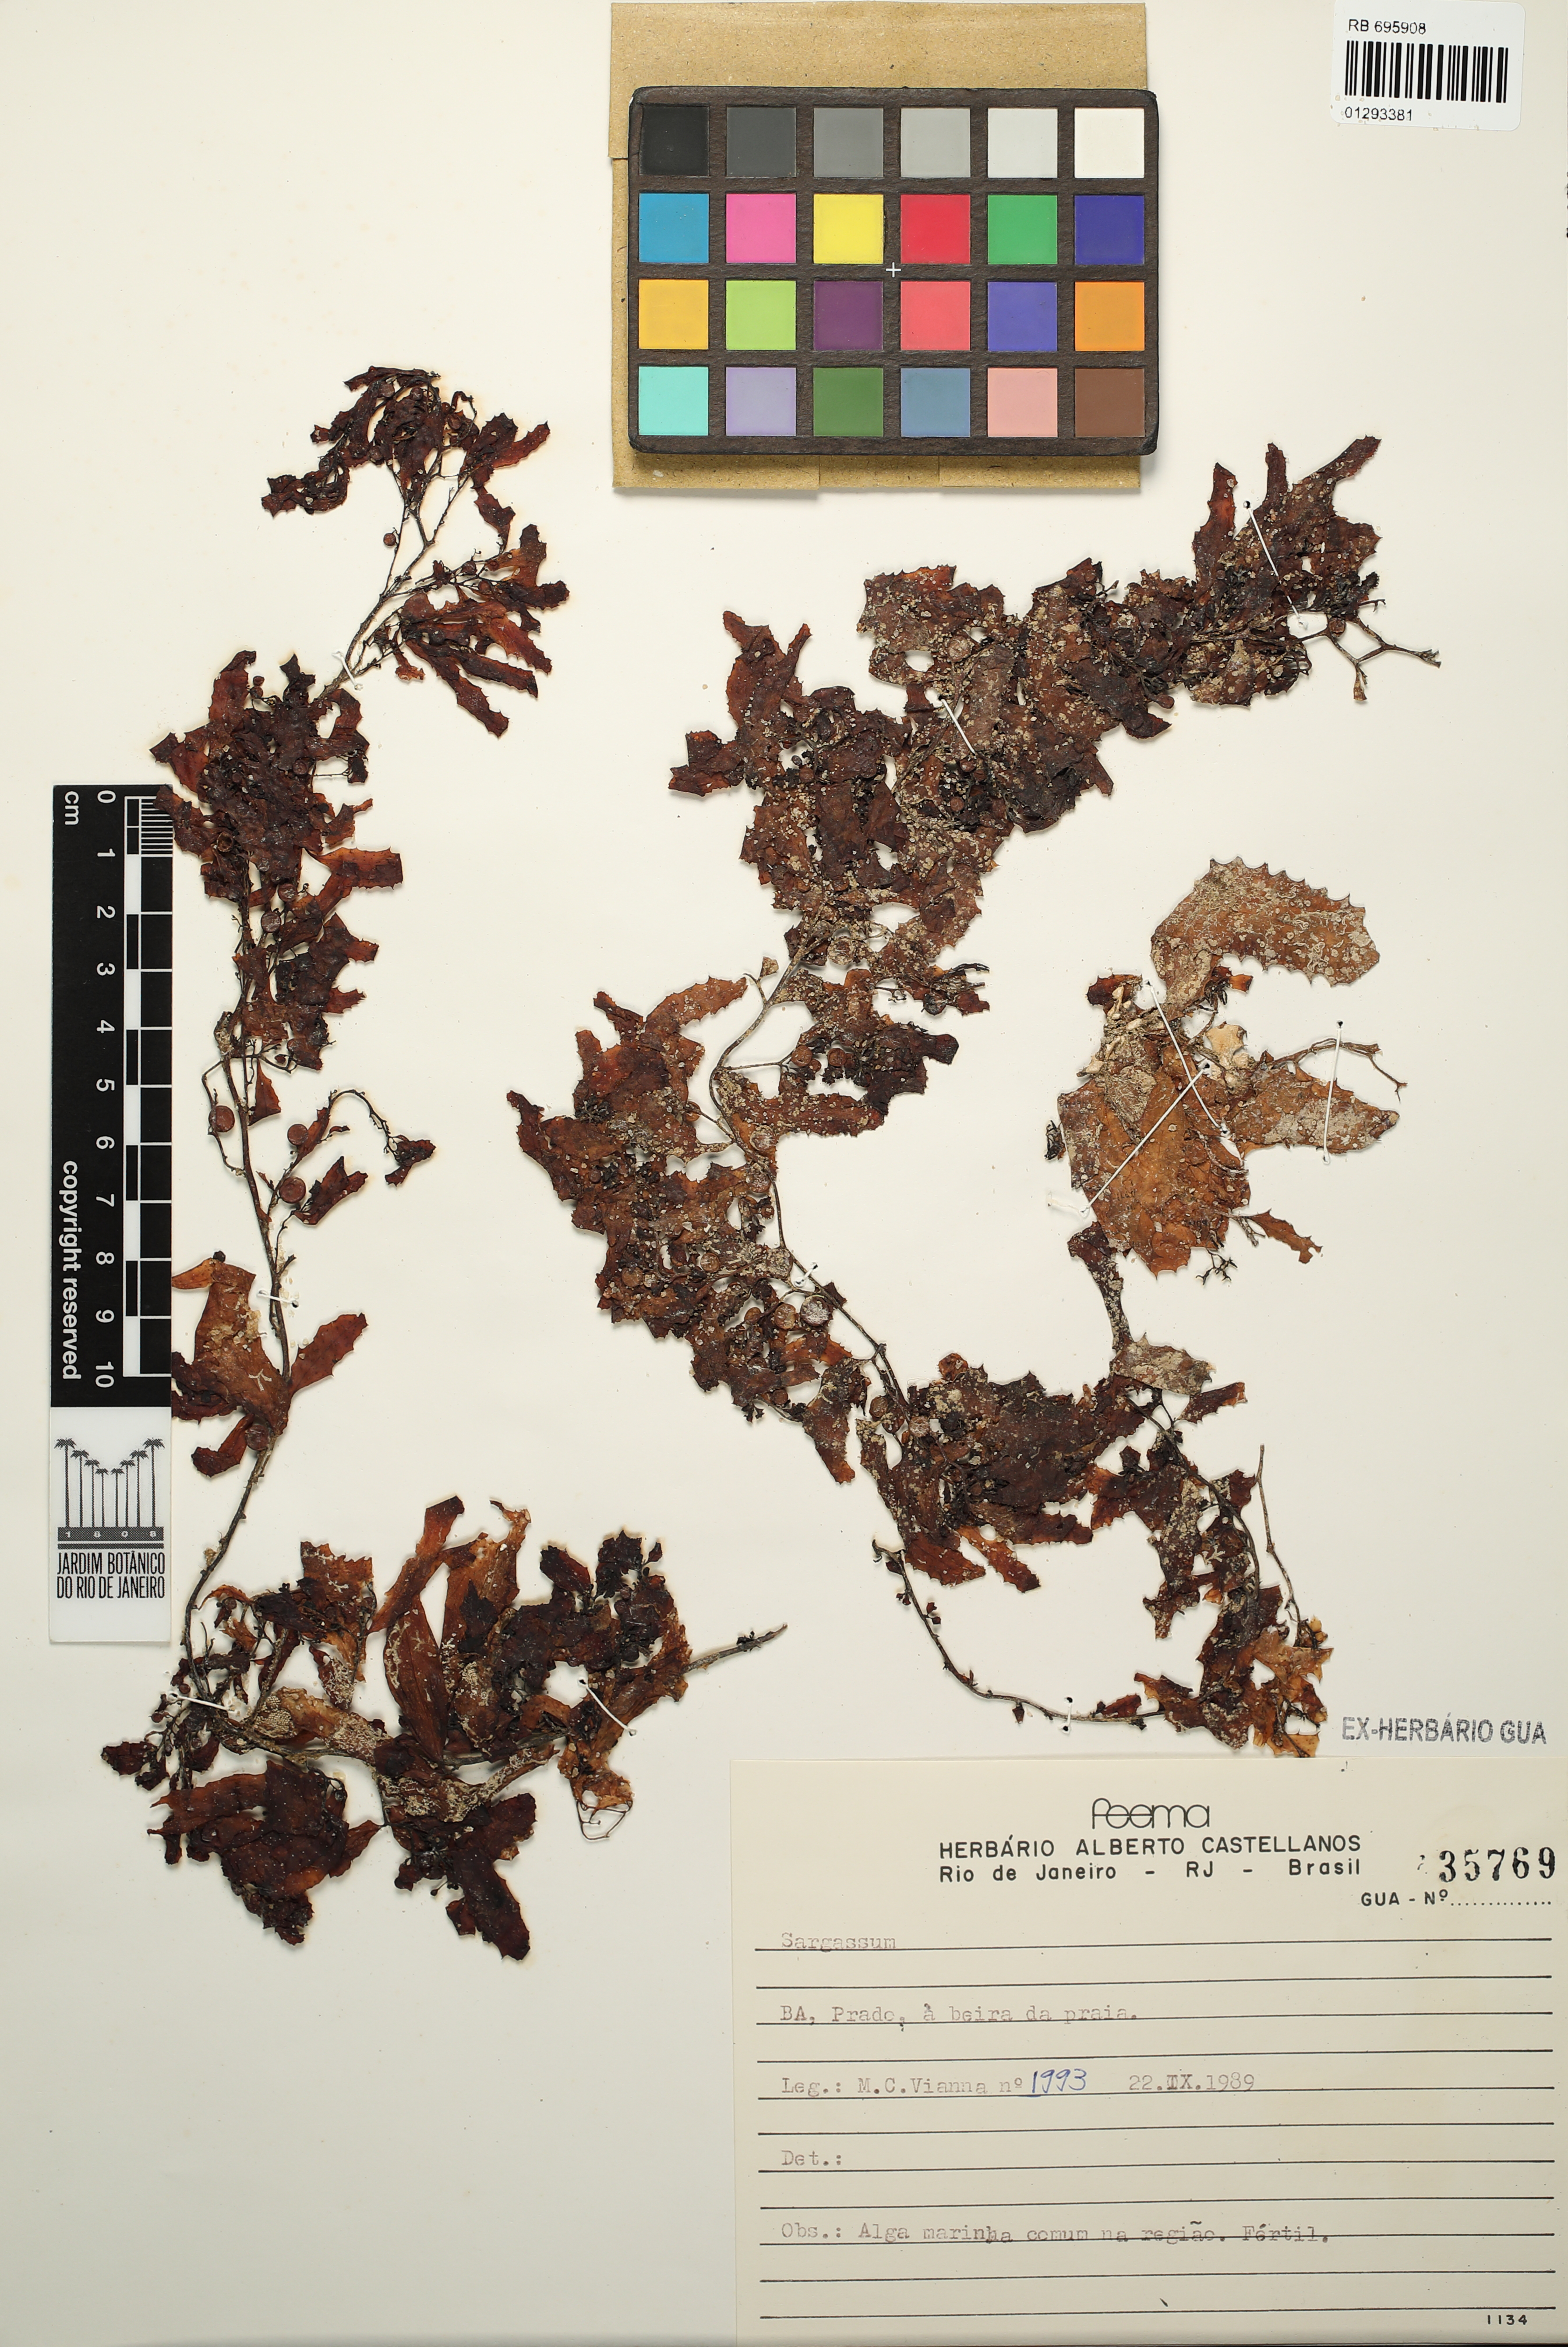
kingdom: Chromista
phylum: Ochrophyta
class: Phaeophyceae
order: Fucales
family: Sargassaceae
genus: Sargassum
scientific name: Sargassum
